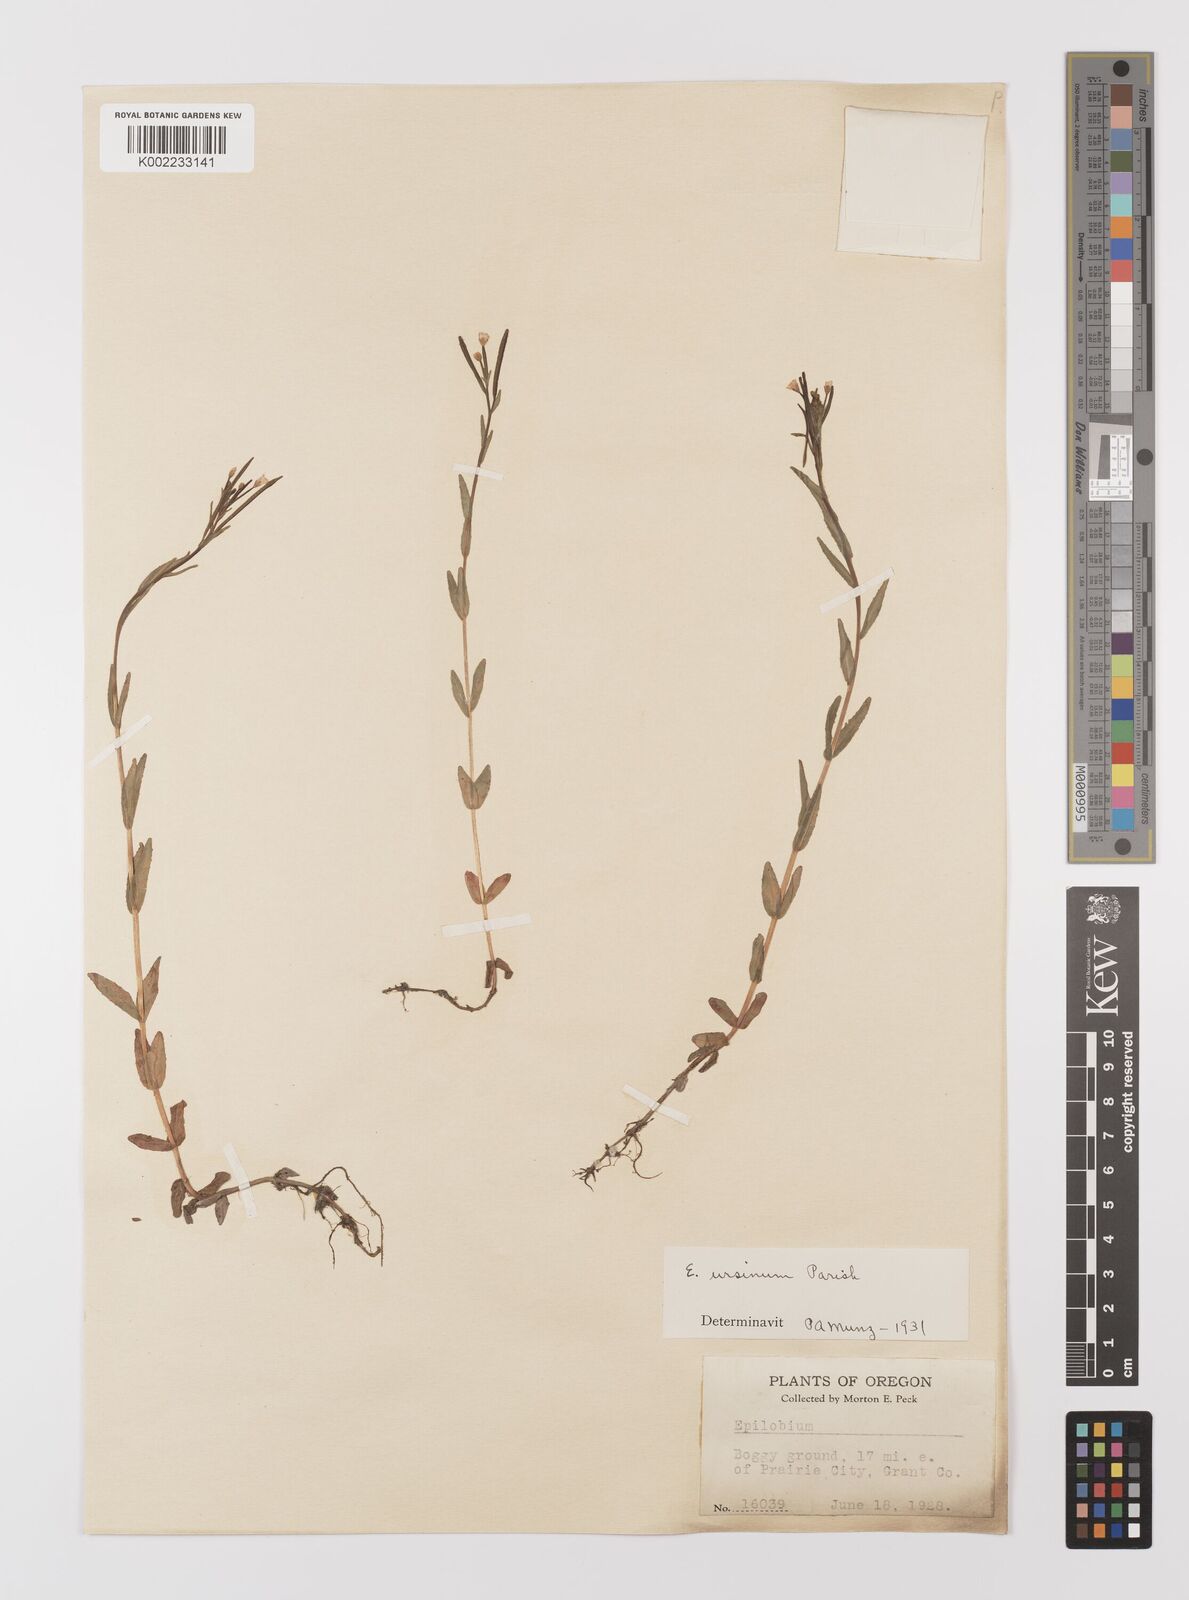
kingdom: Plantae
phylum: Tracheophyta
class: Magnoliopsida
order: Myrtales
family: Onagraceae
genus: Epilobium
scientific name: Epilobium
